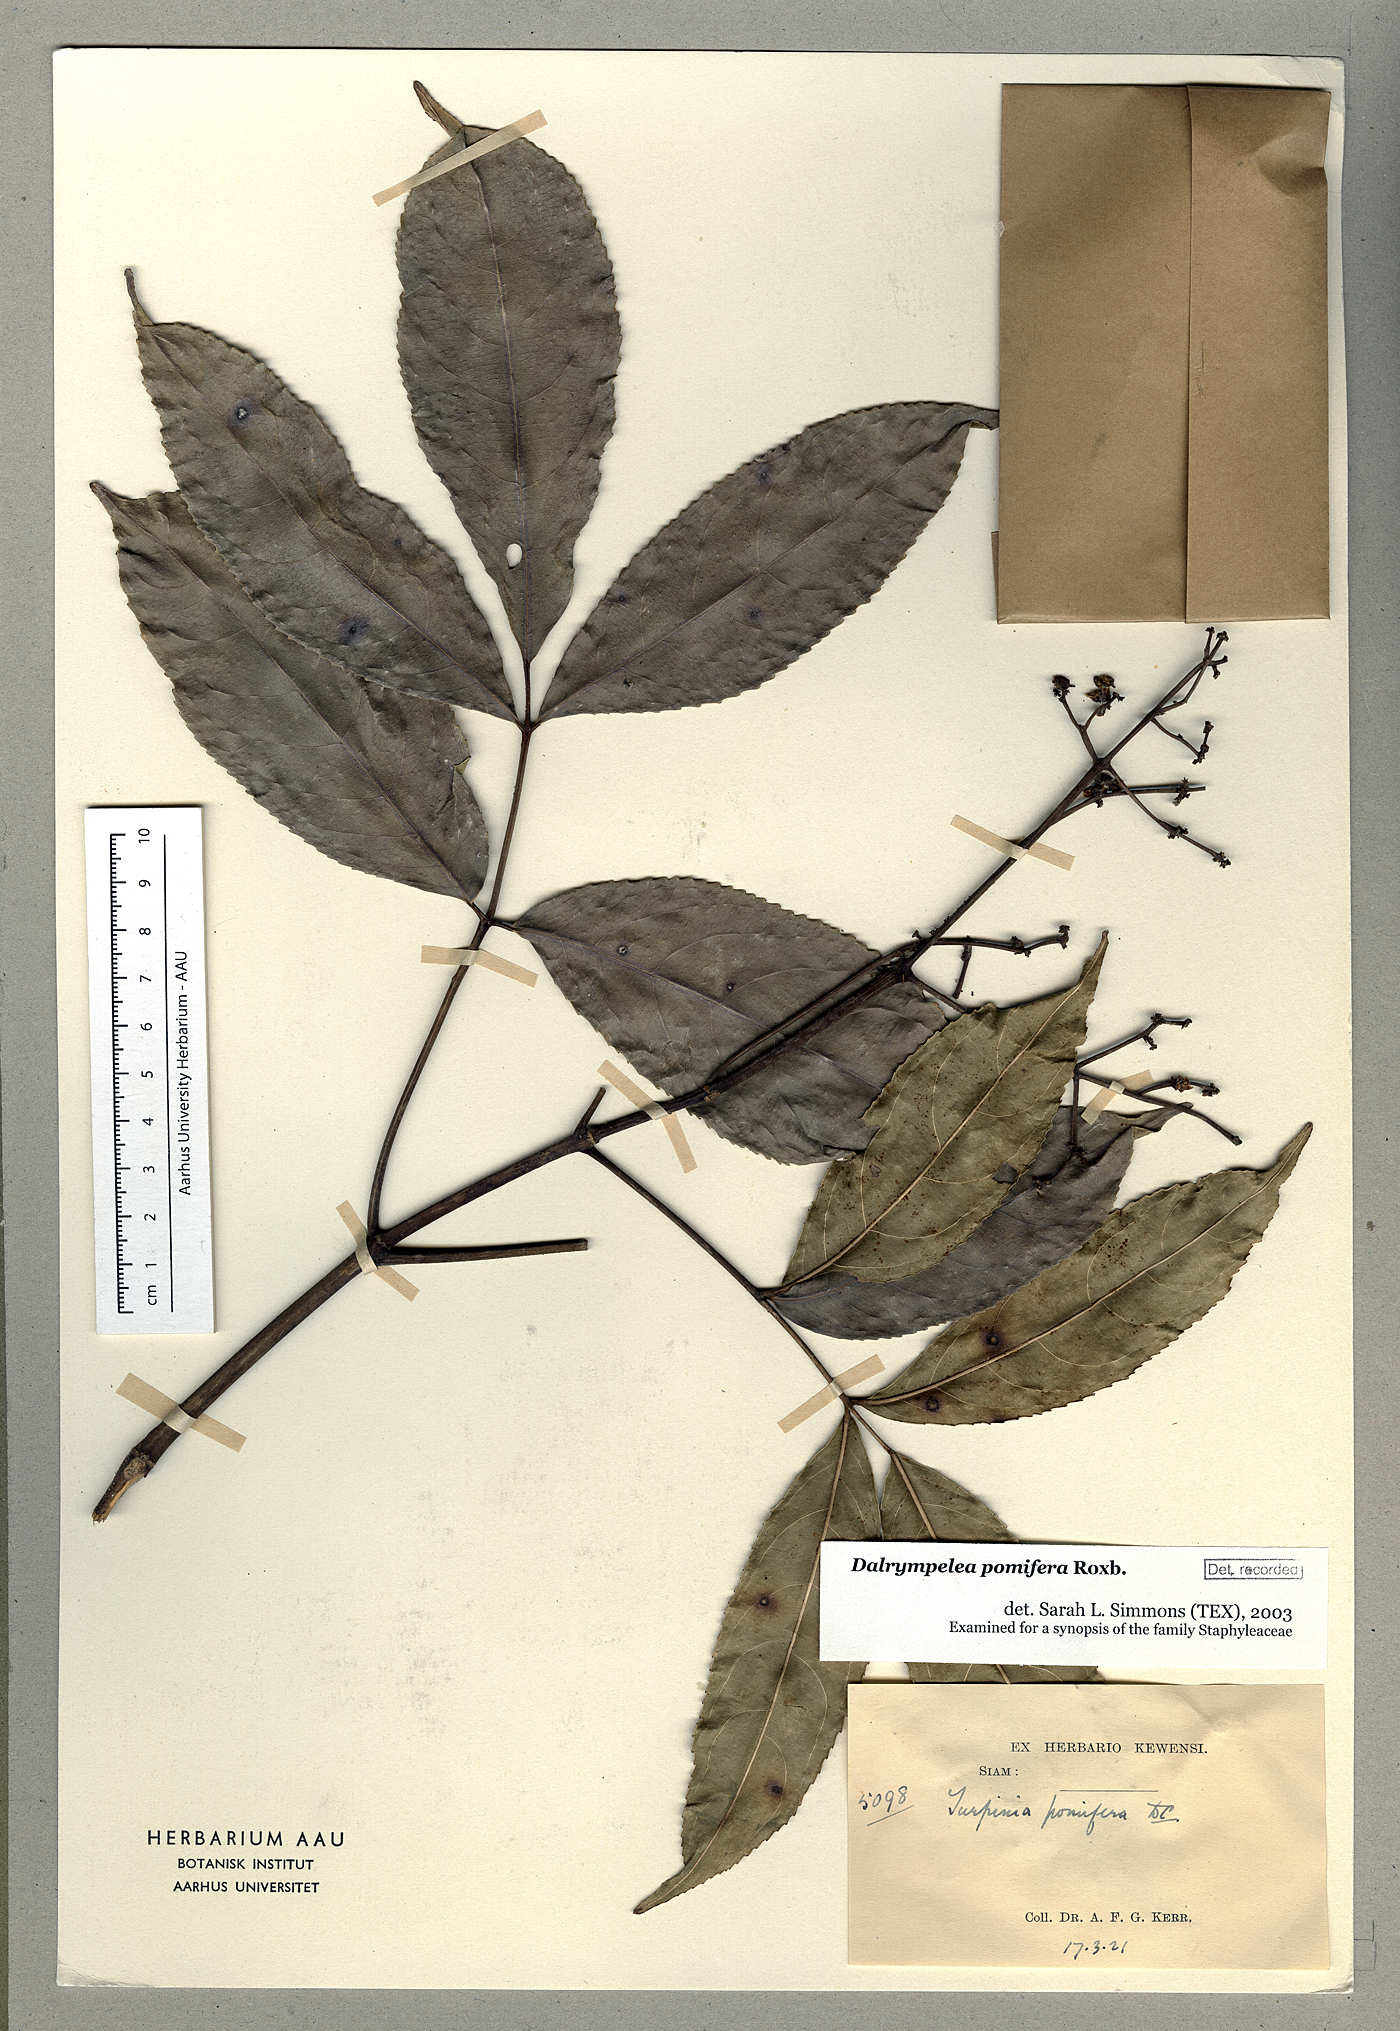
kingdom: Plantae
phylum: Tracheophyta
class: Magnoliopsida
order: Crossosomatales
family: Staphyleaceae
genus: Dalrympelea
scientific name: Dalrympelea pomifera
